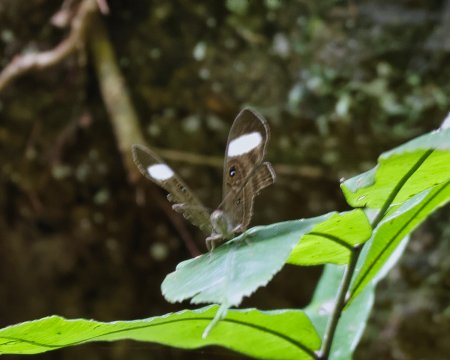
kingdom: Animalia
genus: Mesosemia
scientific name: Mesosemia asa
